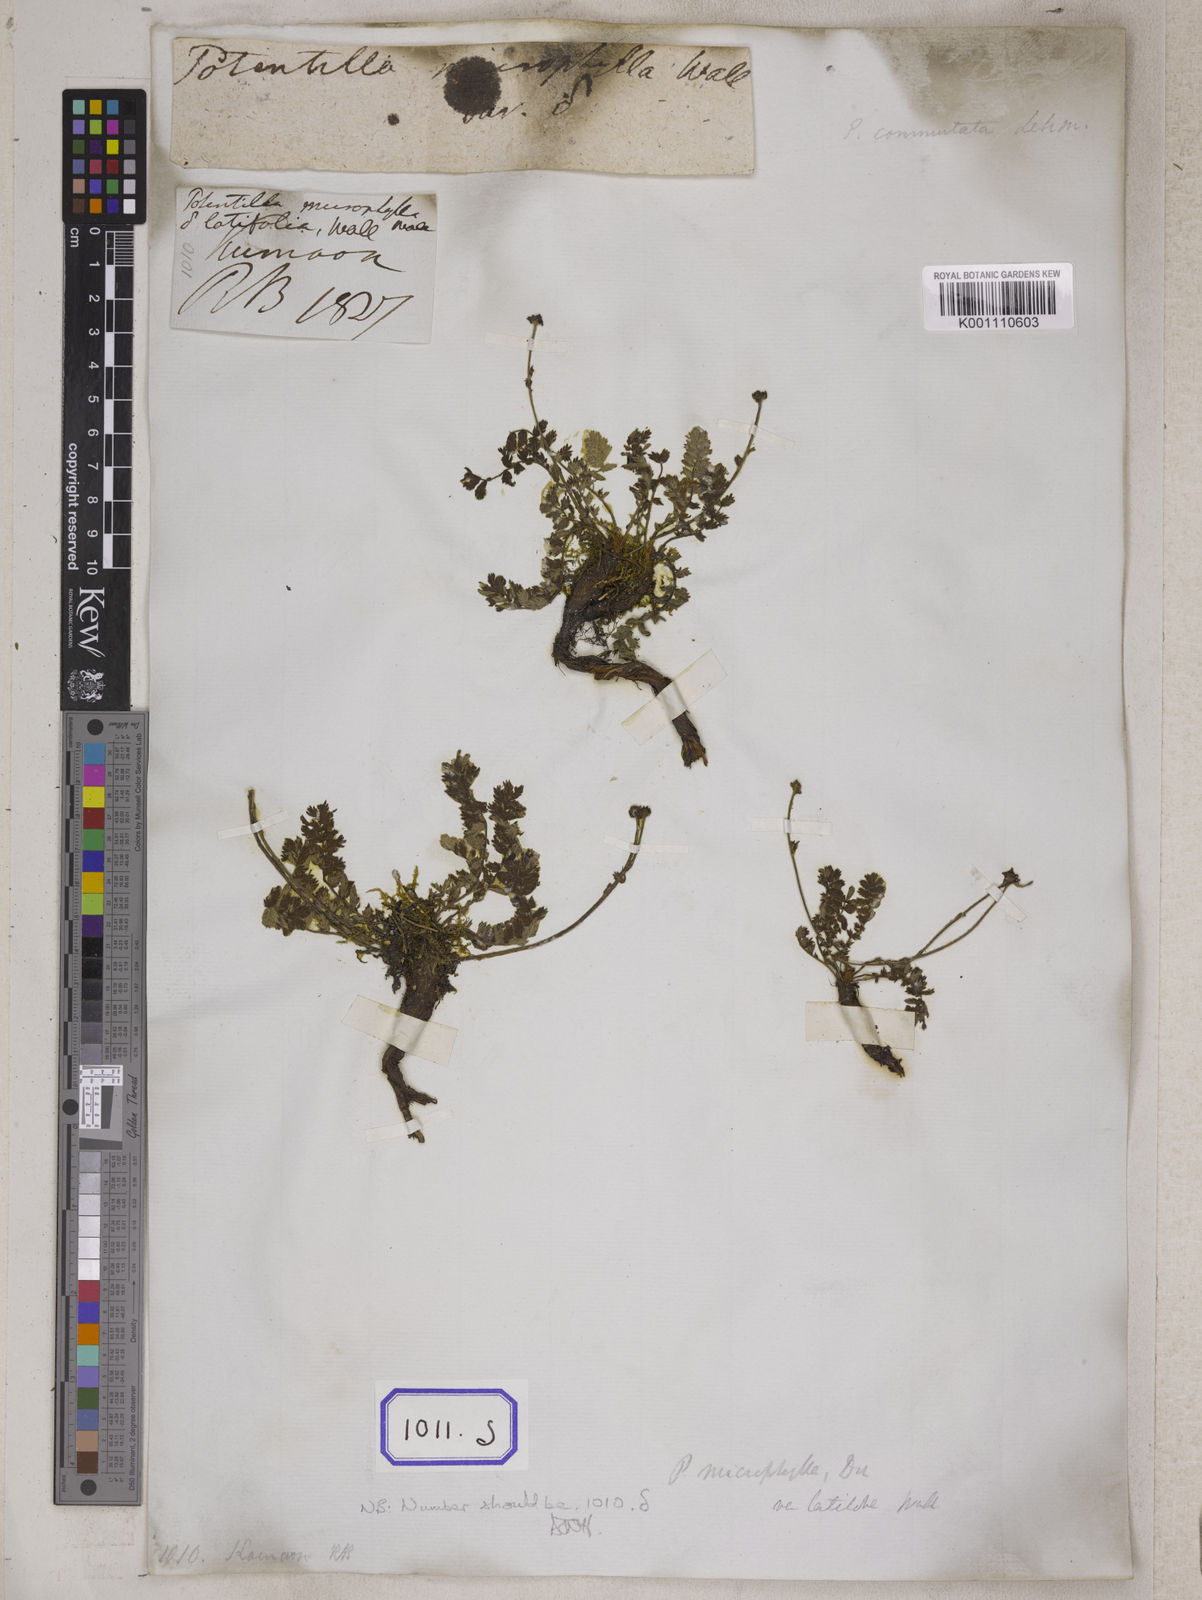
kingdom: Plantae
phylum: Tracheophyta
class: Magnoliopsida
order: Rosales
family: Rosaceae
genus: Potentilla
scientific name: Potentilla
